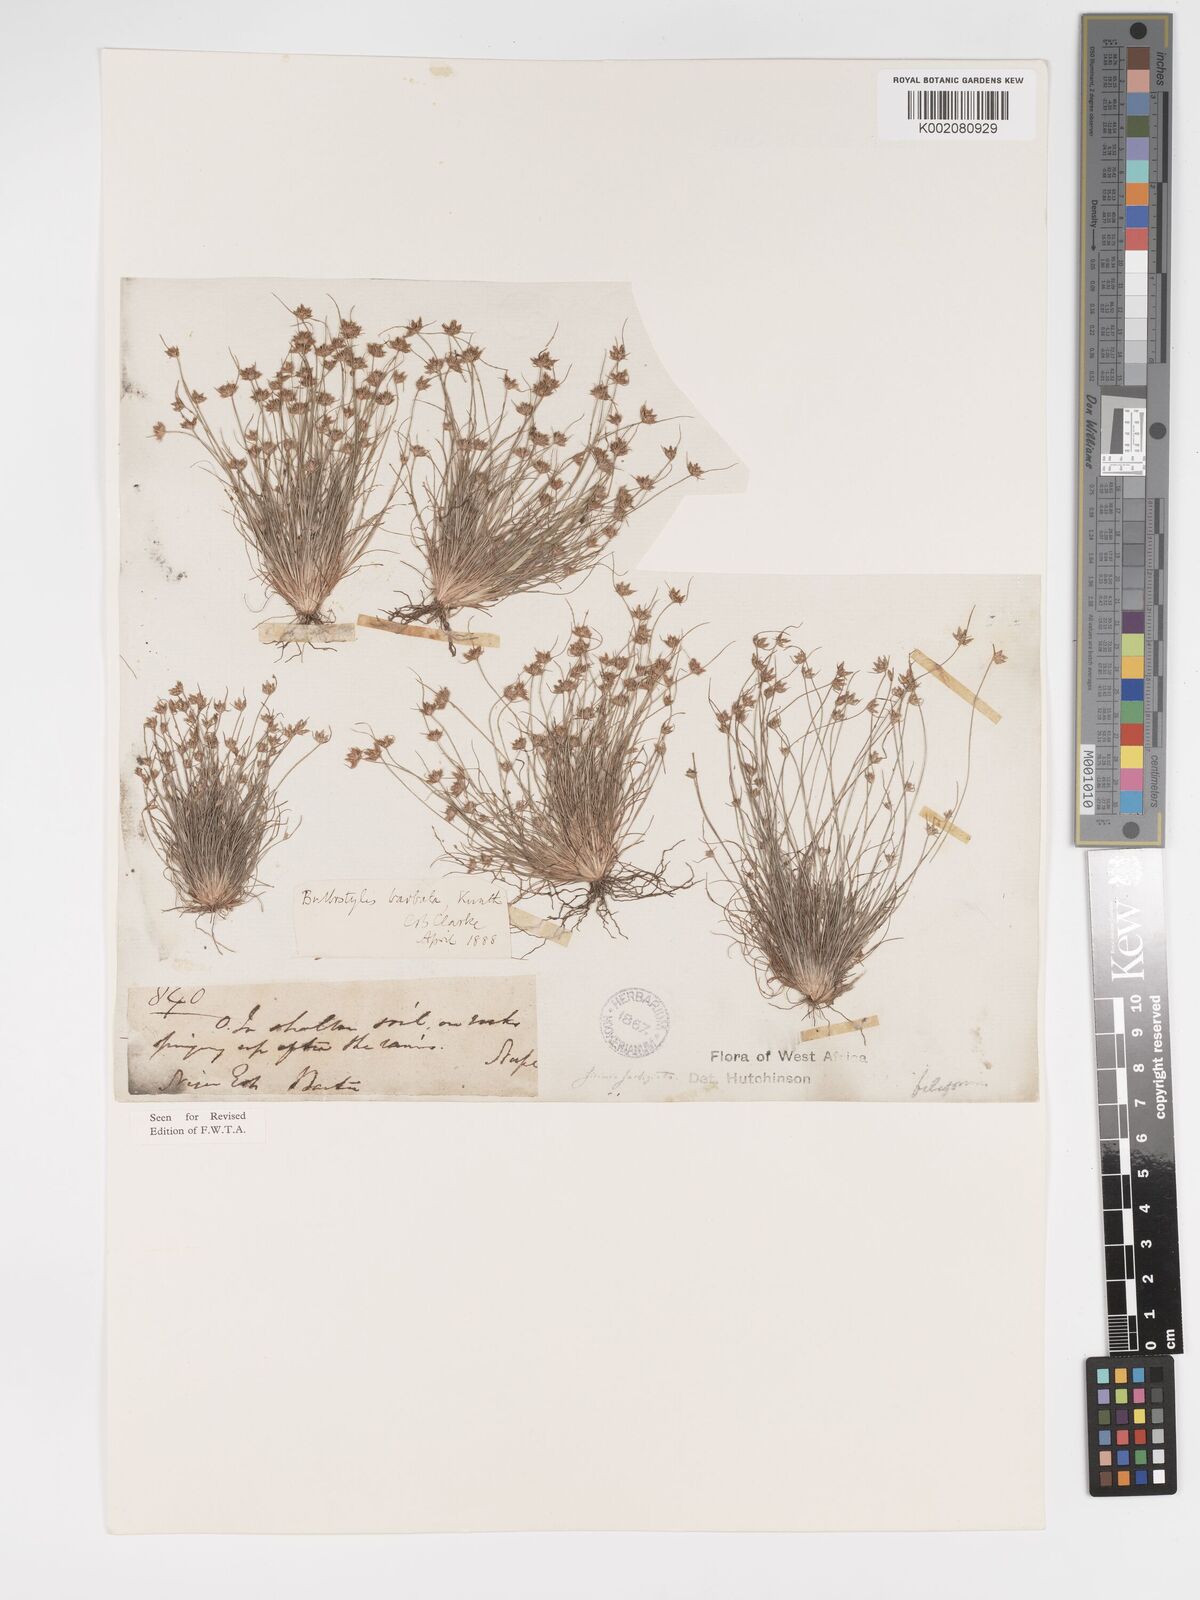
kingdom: Plantae
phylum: Tracheophyta
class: Liliopsida
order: Poales
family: Cyperaceae
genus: Bulbostylis
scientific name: Bulbostylis barbata
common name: Watergrass
